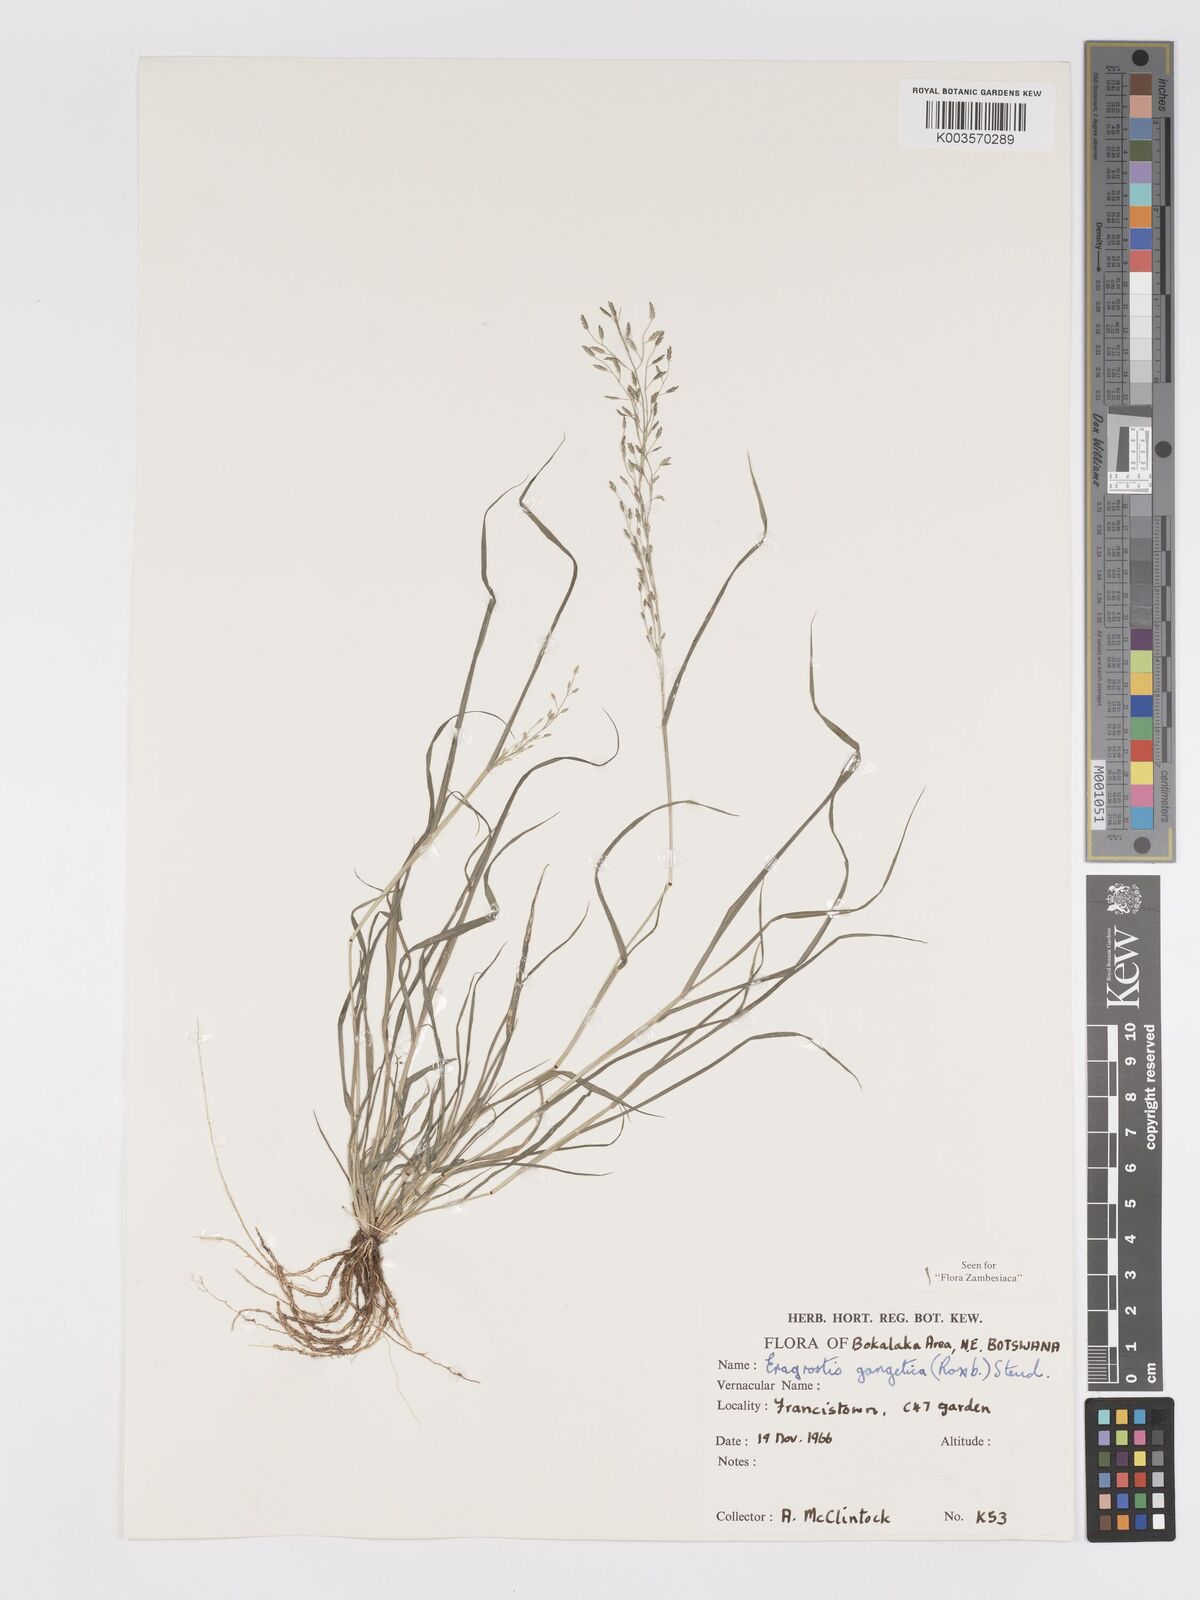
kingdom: Plantae
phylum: Tracheophyta
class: Liliopsida
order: Poales
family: Poaceae
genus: Eragrostis
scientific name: Eragrostis gangetica
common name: Slimflower lovegrass
